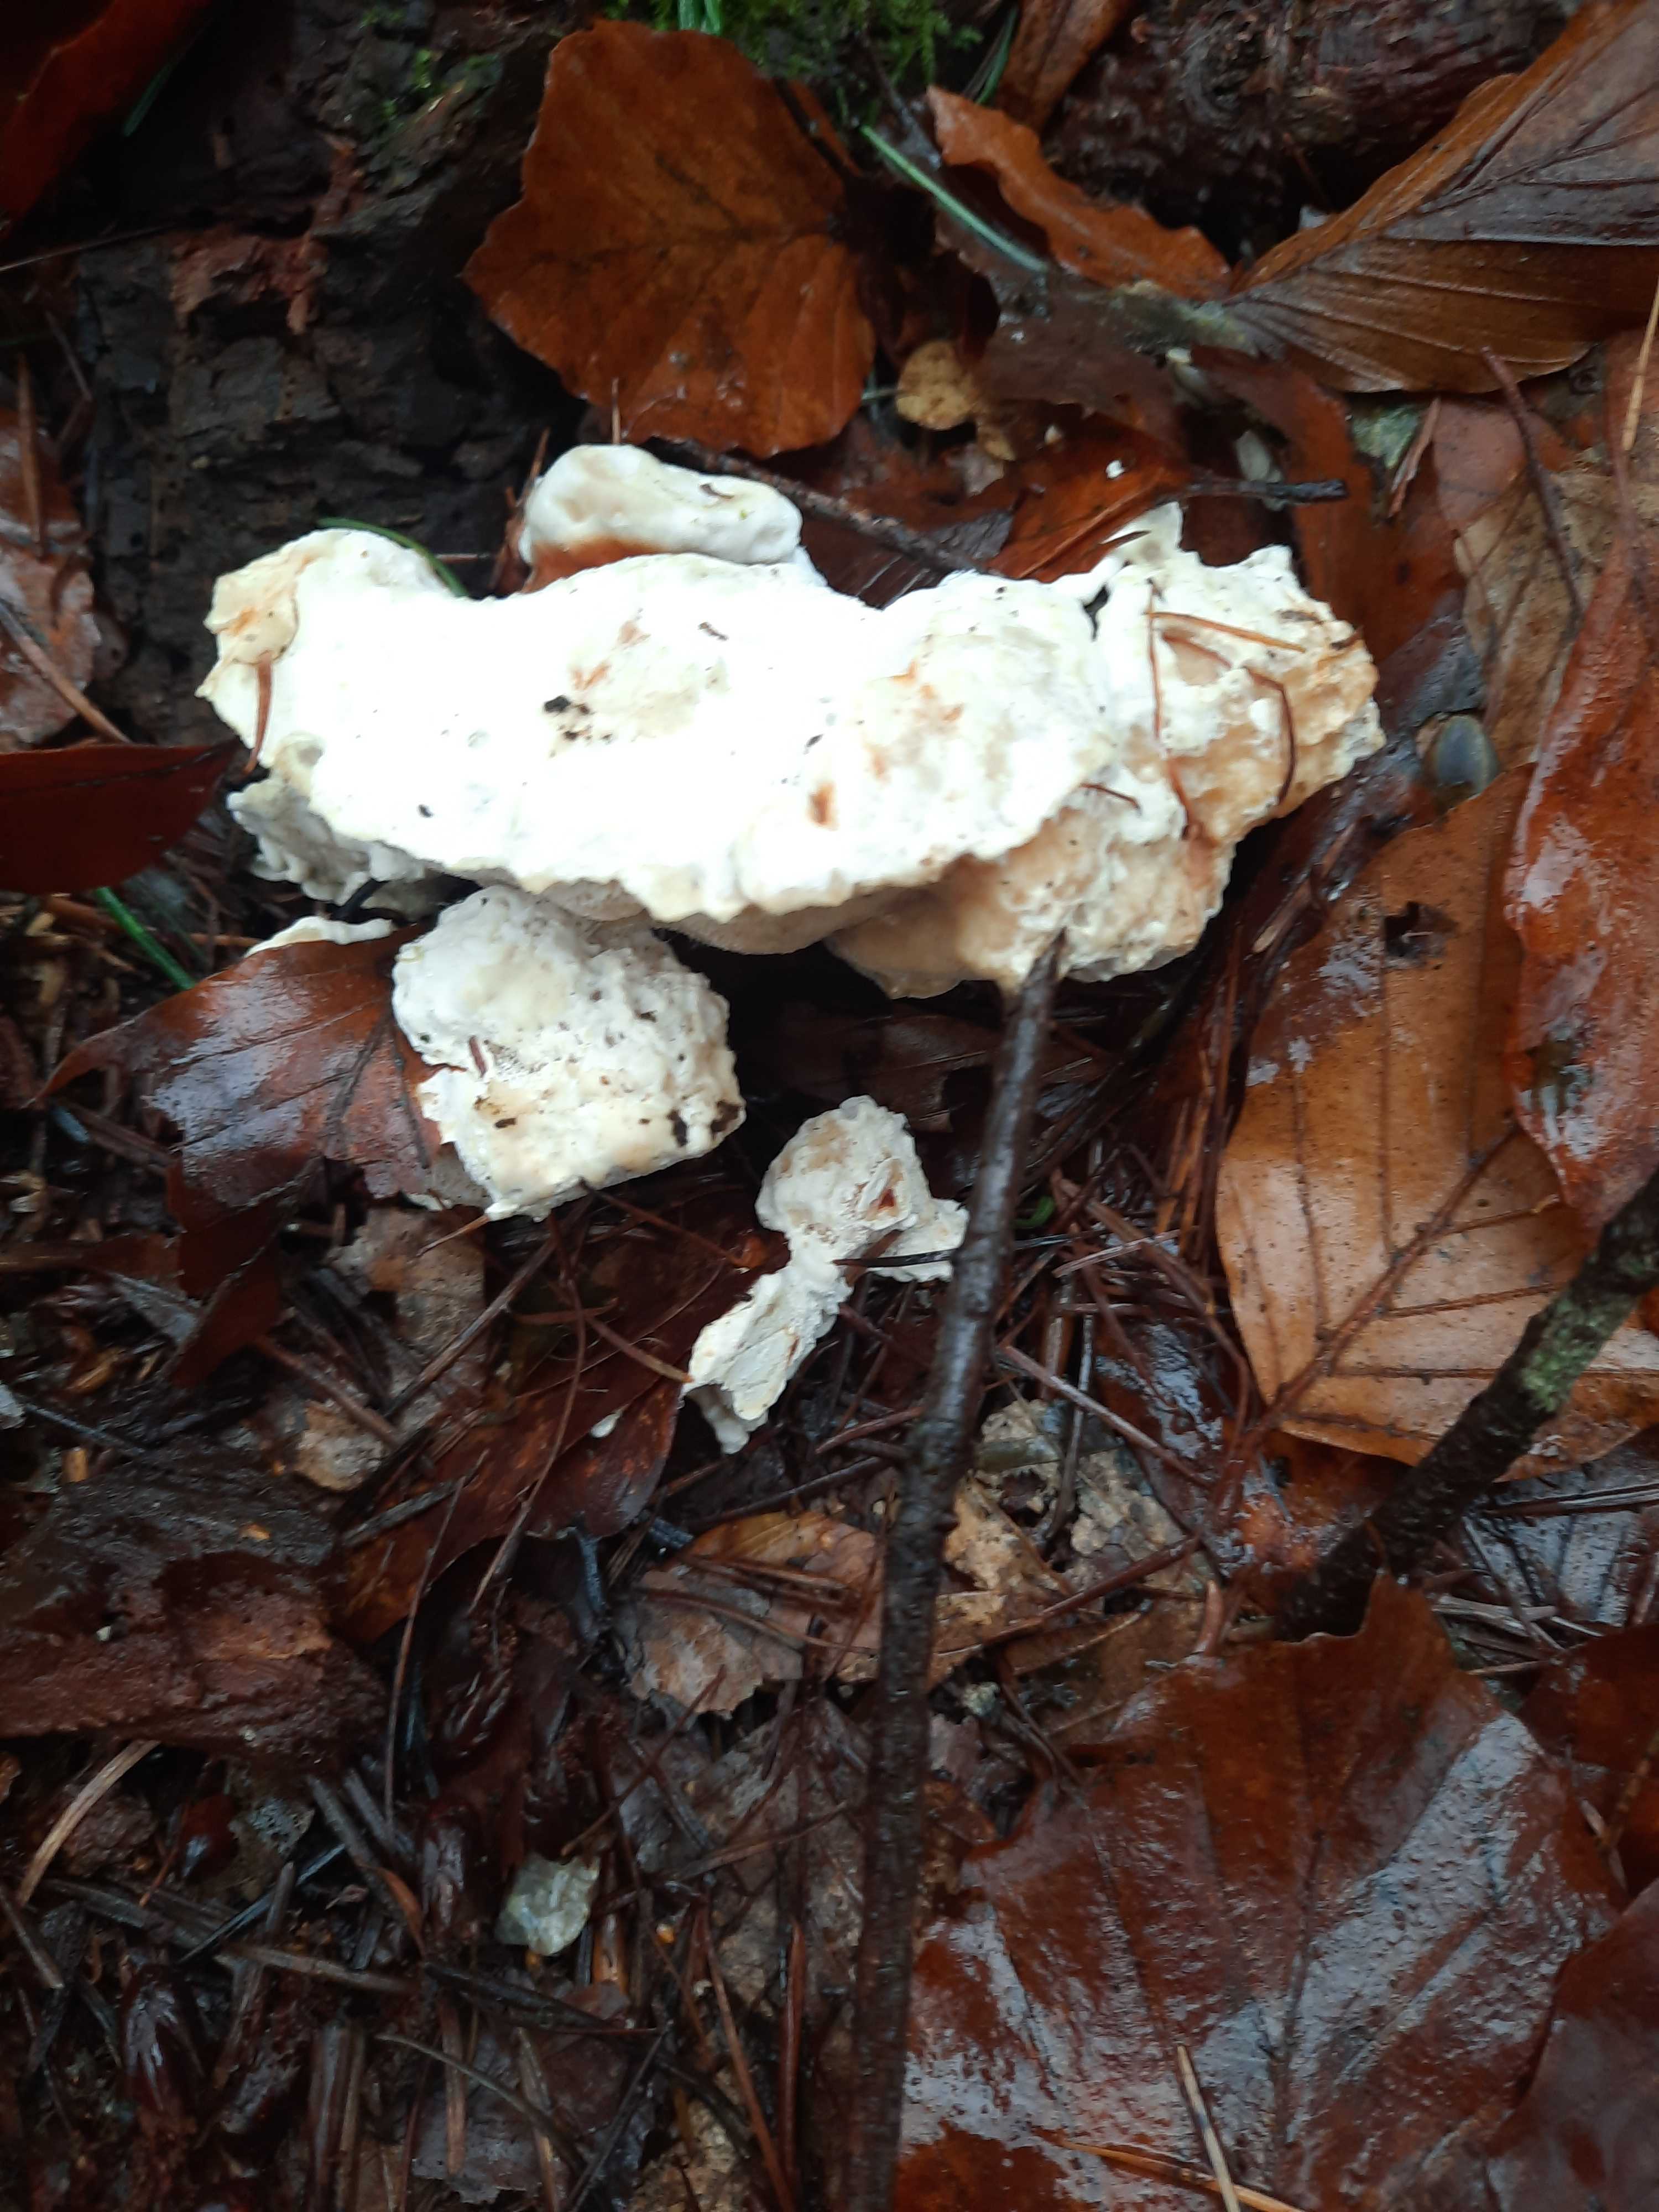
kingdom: Fungi
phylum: Basidiomycota
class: Agaricomycetes
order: Russulales
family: Bondarzewiaceae
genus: Heterobasidion
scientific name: Heterobasidion annosum
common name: almindelig rodfordærver
